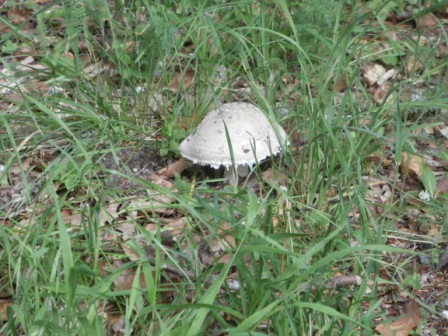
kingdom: Fungi
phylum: Basidiomycota
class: Agaricomycetes
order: Agaricales
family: Amanitaceae
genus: Amanita
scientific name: Amanita
